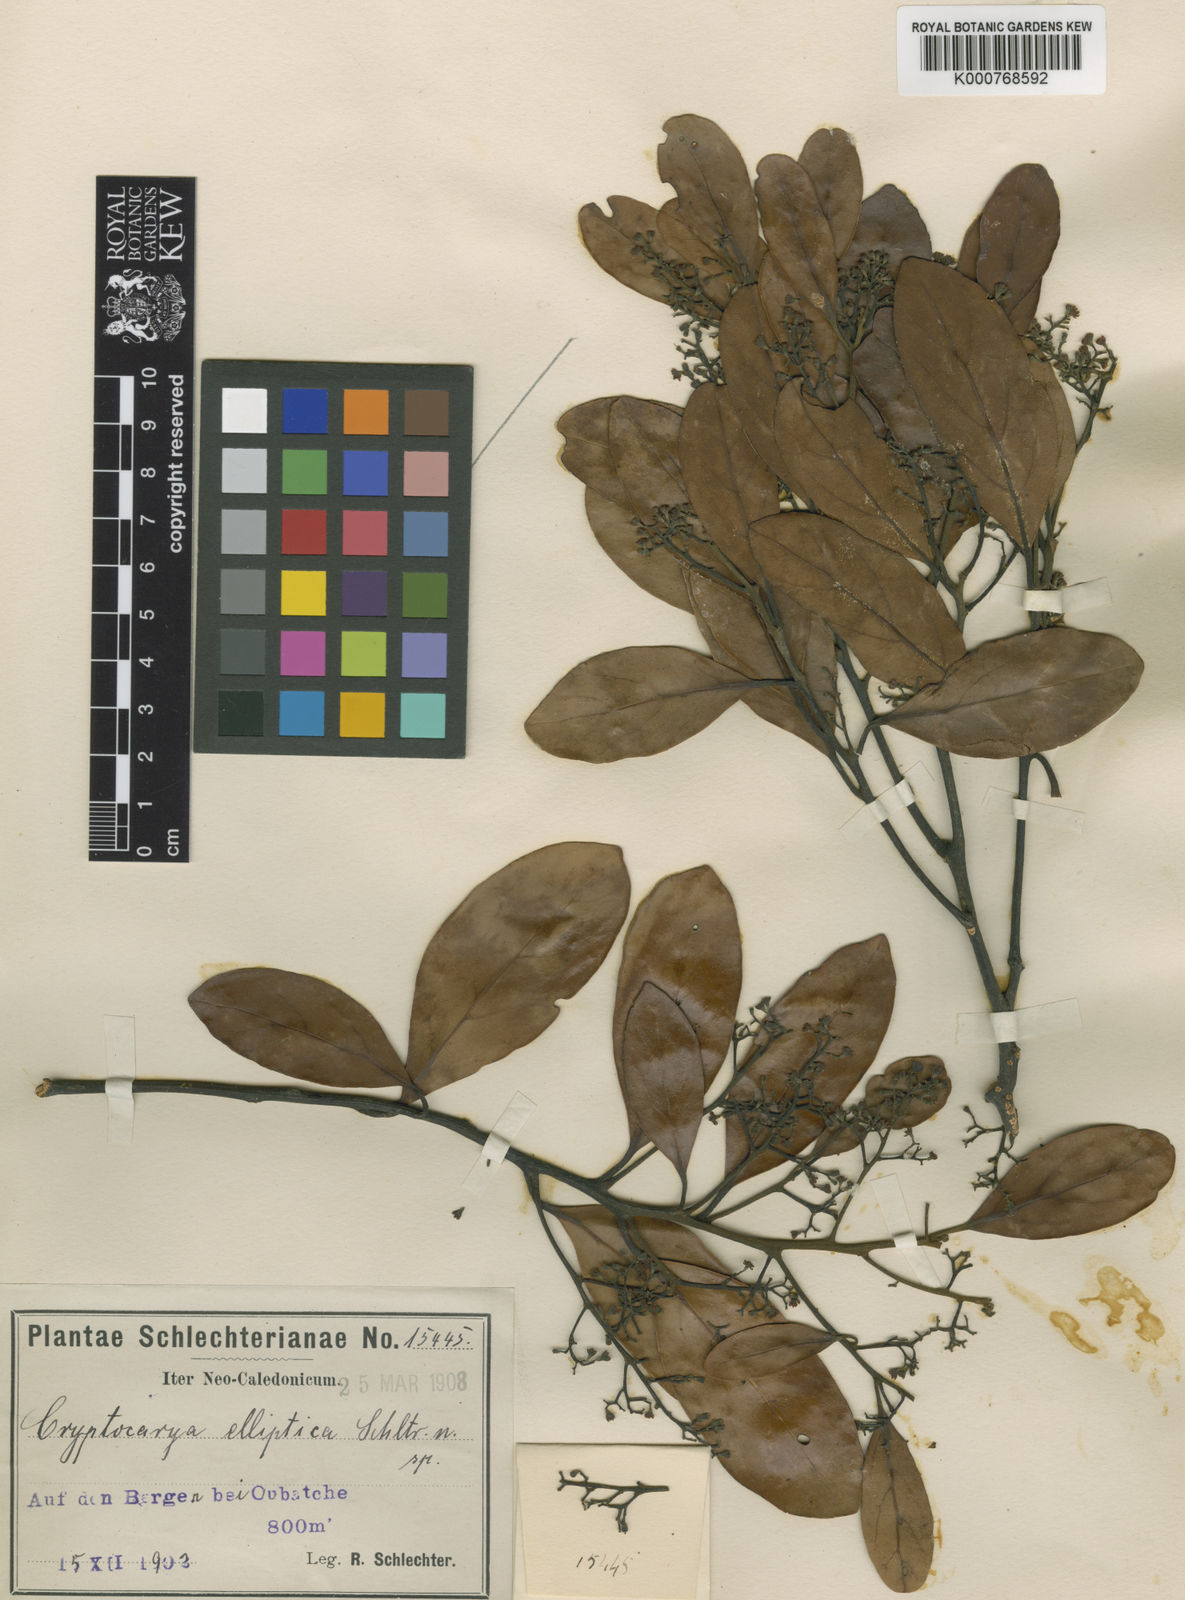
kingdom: Plantae
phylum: Tracheophyta
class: Magnoliopsida
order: Laurales
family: Lauraceae
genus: Cryptocarya
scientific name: Cryptocarya elliptica
